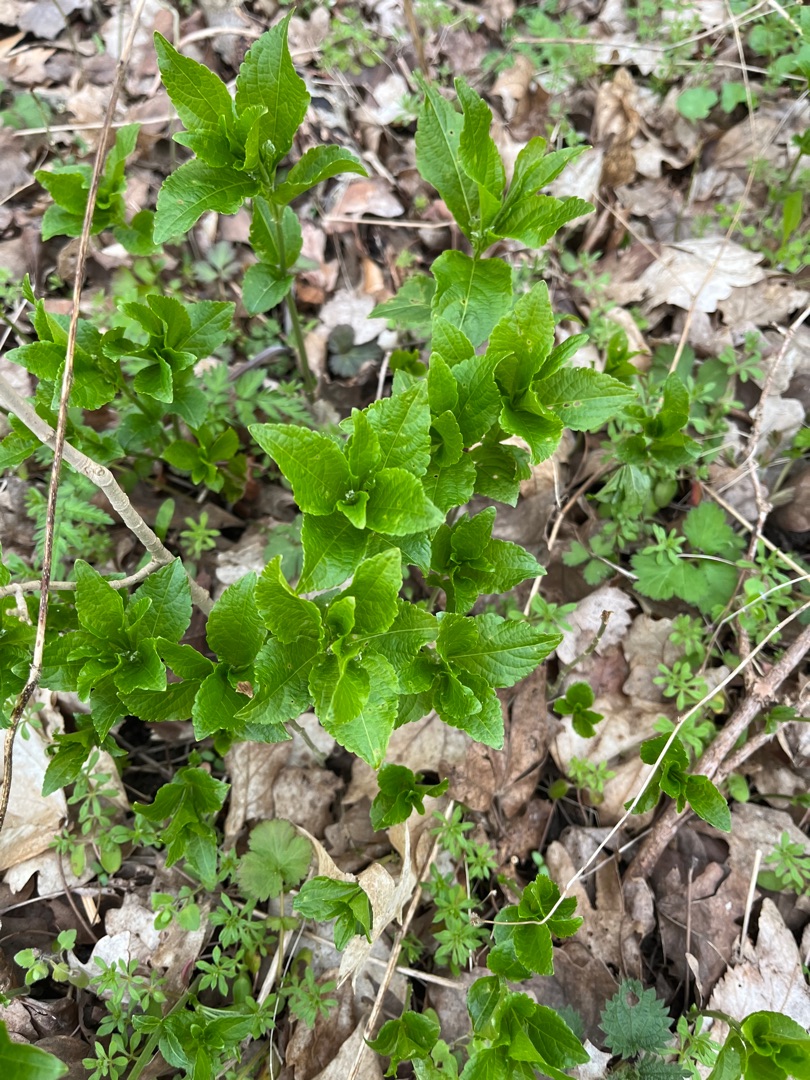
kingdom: Plantae
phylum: Tracheophyta
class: Magnoliopsida
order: Malpighiales
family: Euphorbiaceae
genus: Mercurialis
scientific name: Mercurialis perennis
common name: Almindelig bingelurt
